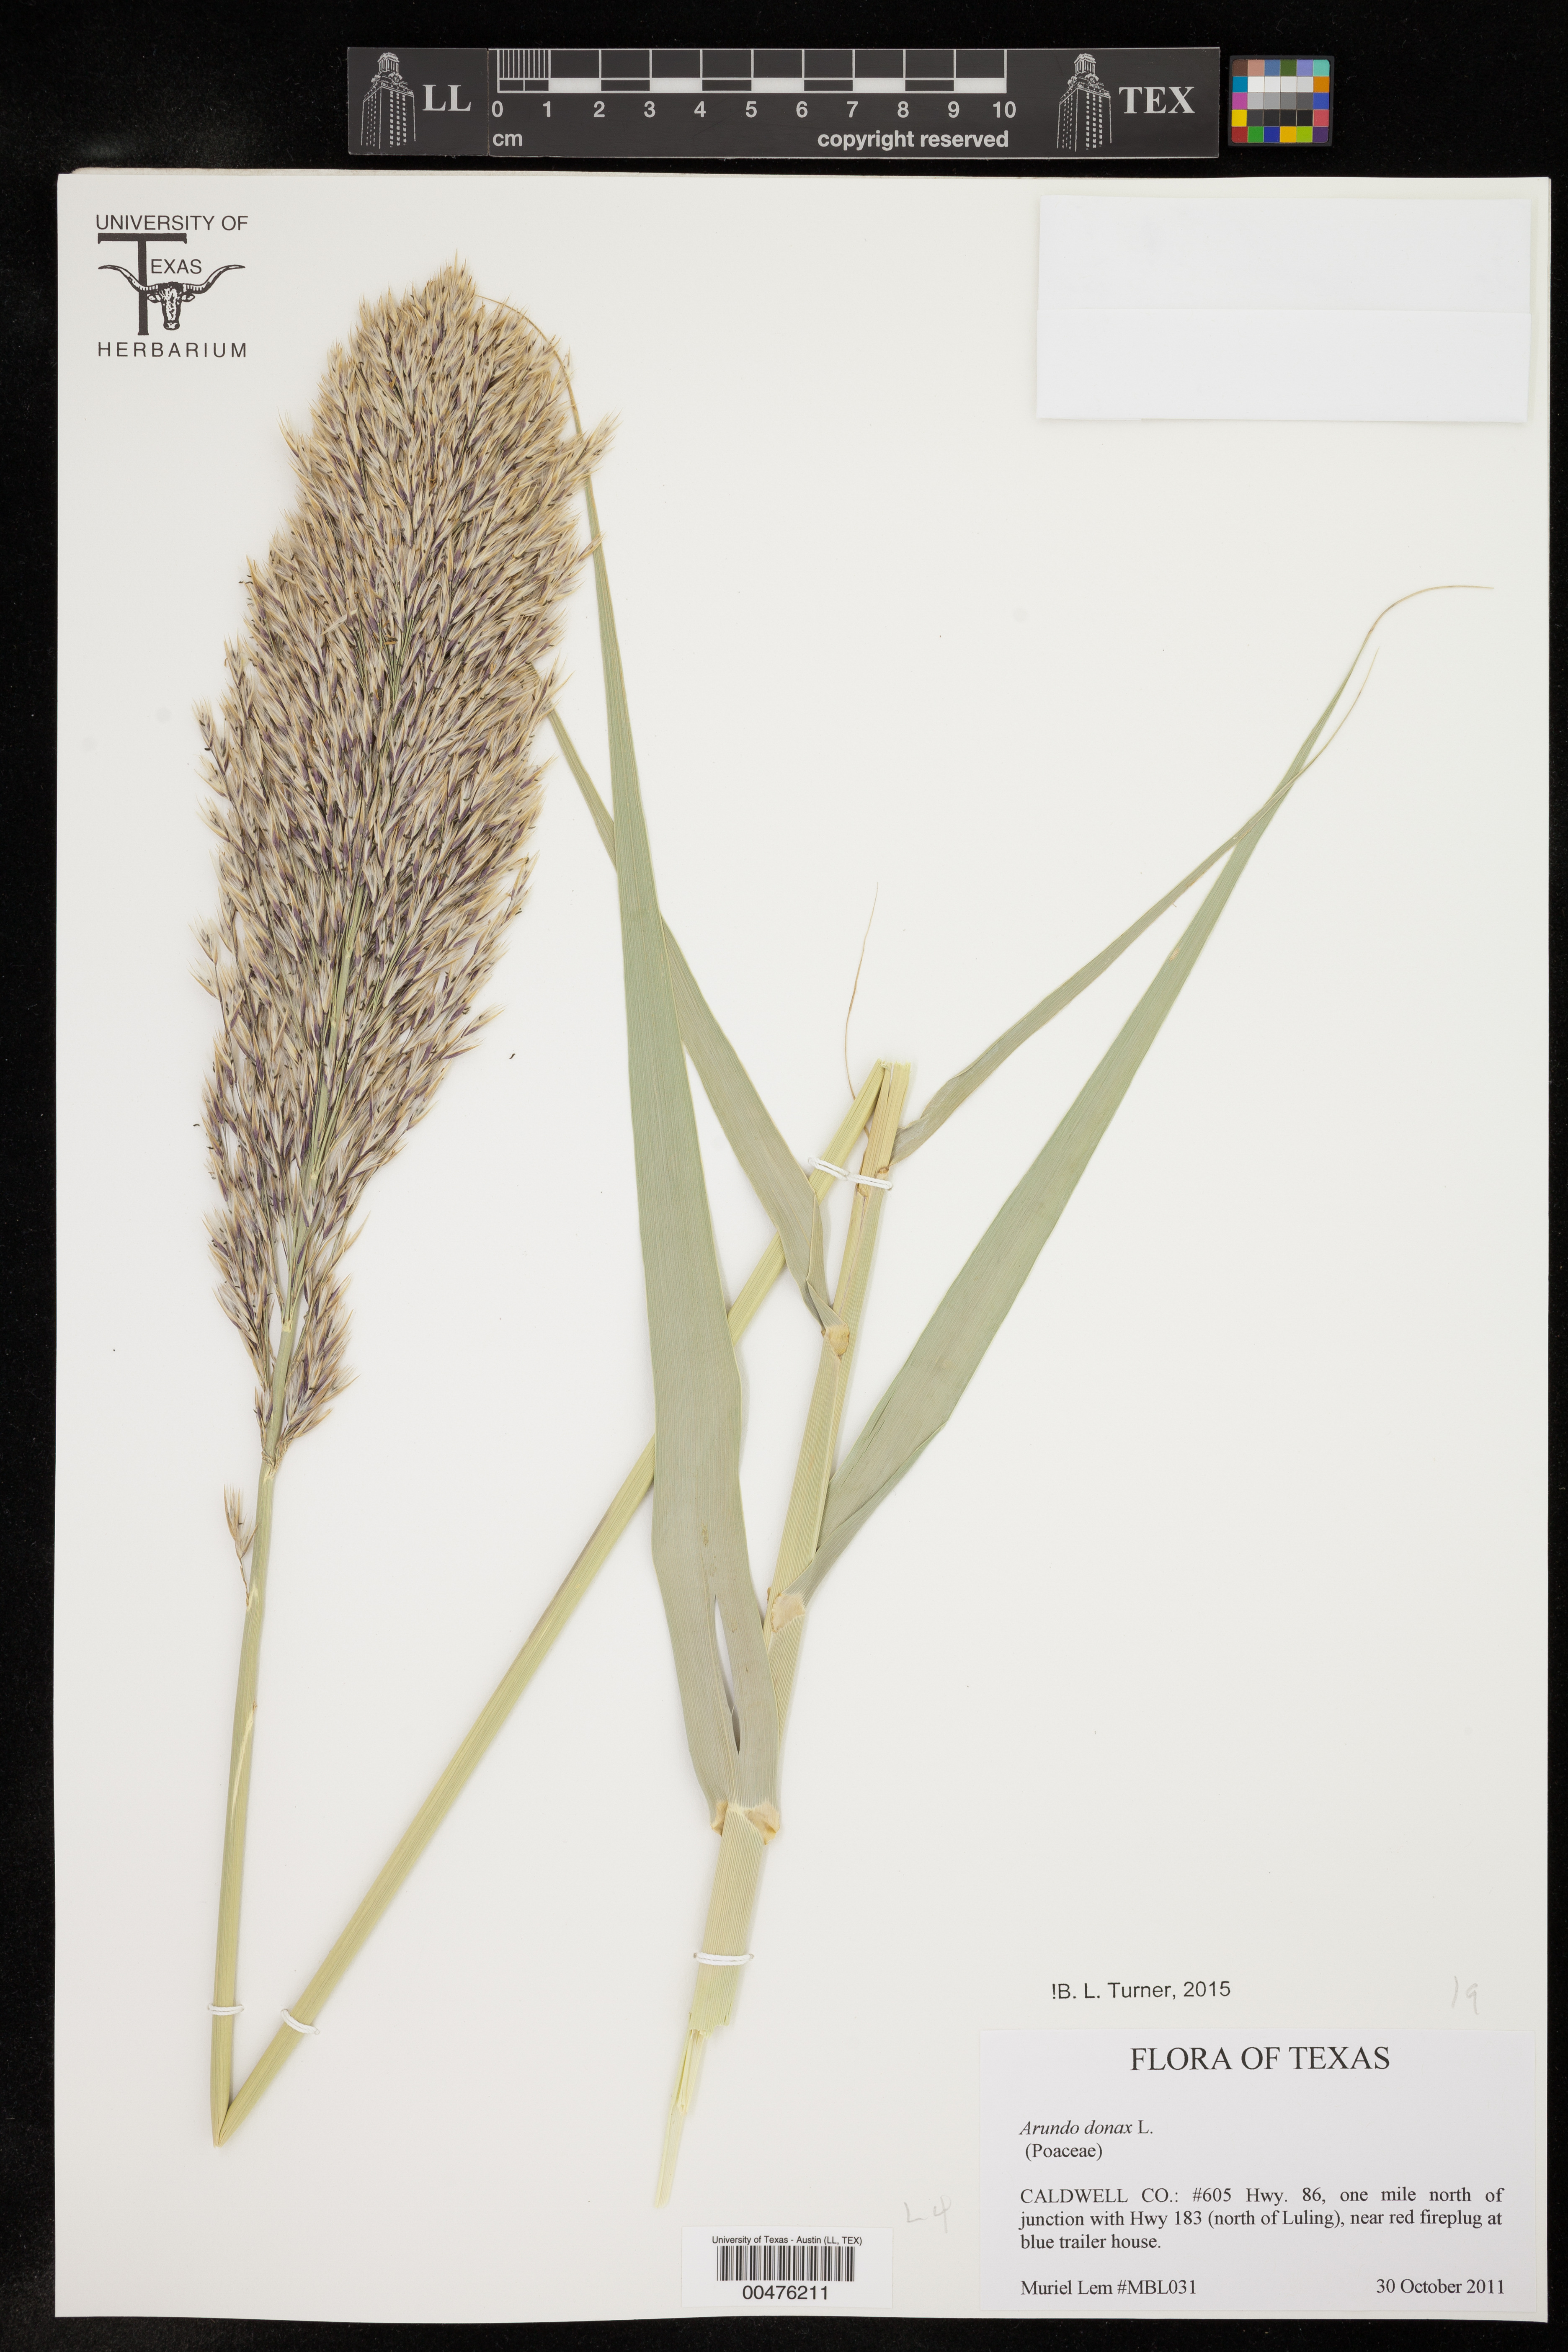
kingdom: Plantae
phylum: Tracheophyta
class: Liliopsida
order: Poales
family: Poaceae
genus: Arundo
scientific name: Arundo donax
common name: Giant reed
